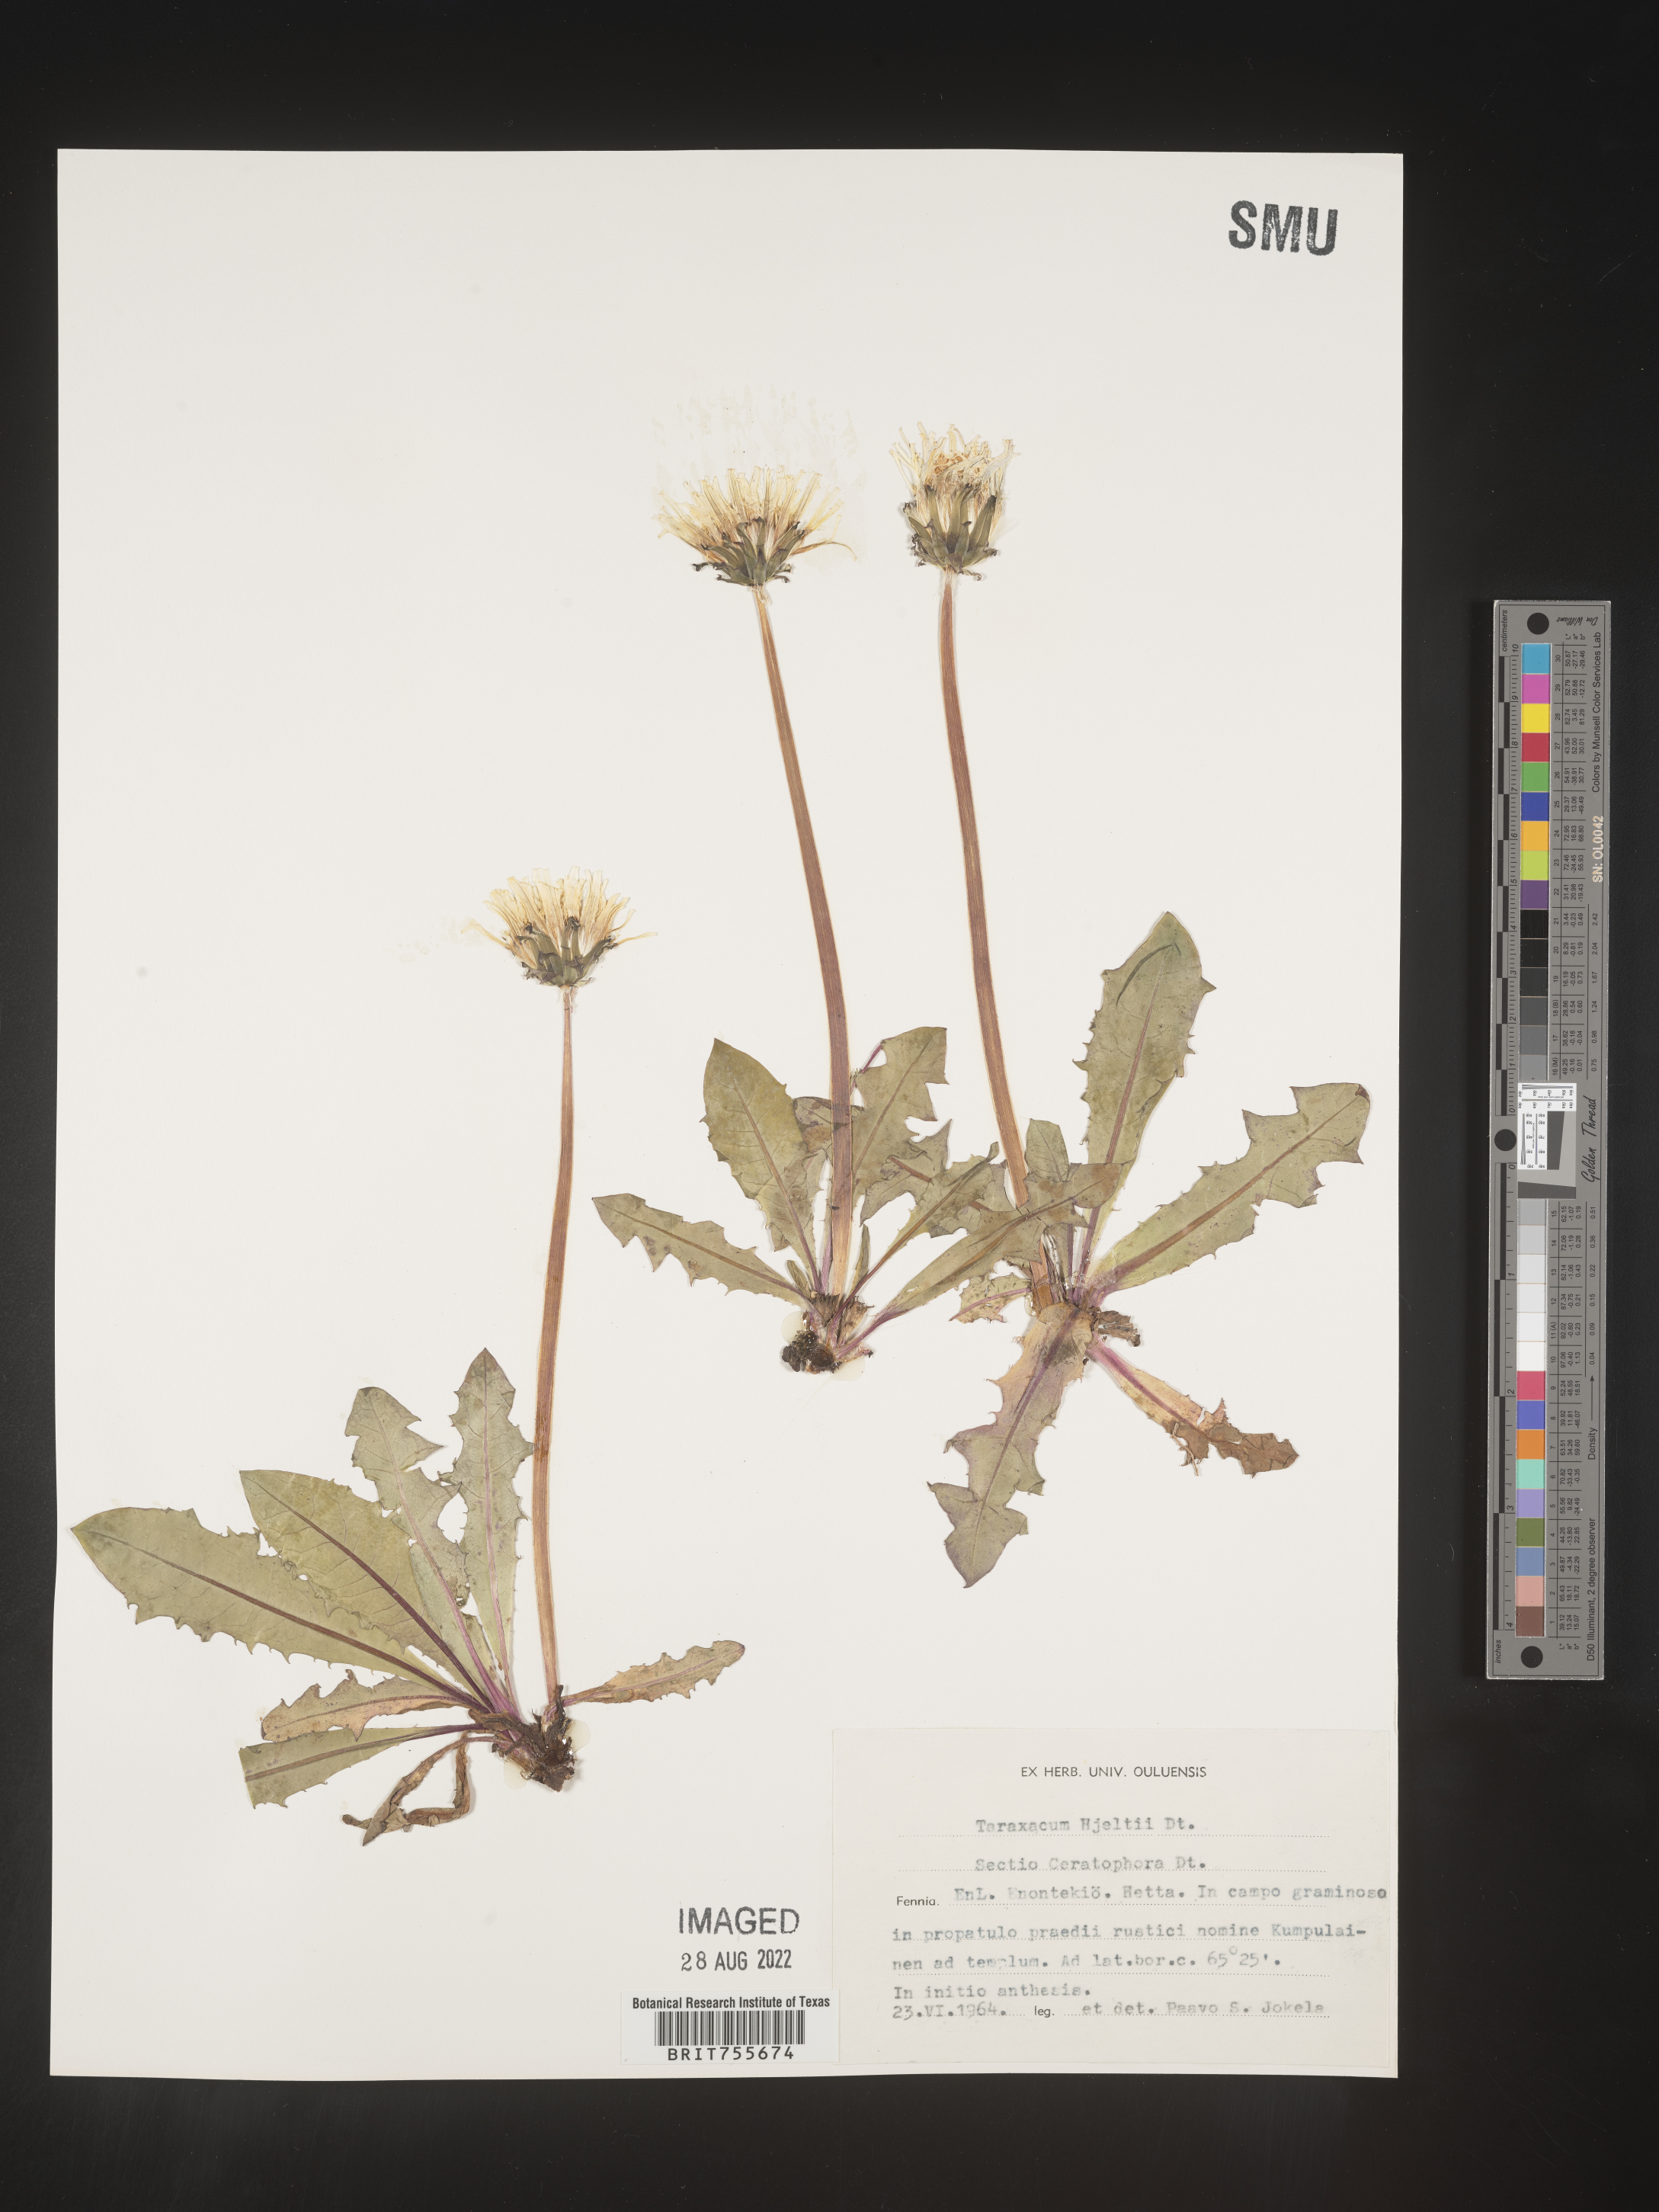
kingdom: Plantae
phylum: Tracheophyta
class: Magnoliopsida
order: Asterales
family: Asteraceae
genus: Taraxacum
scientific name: Taraxacum
